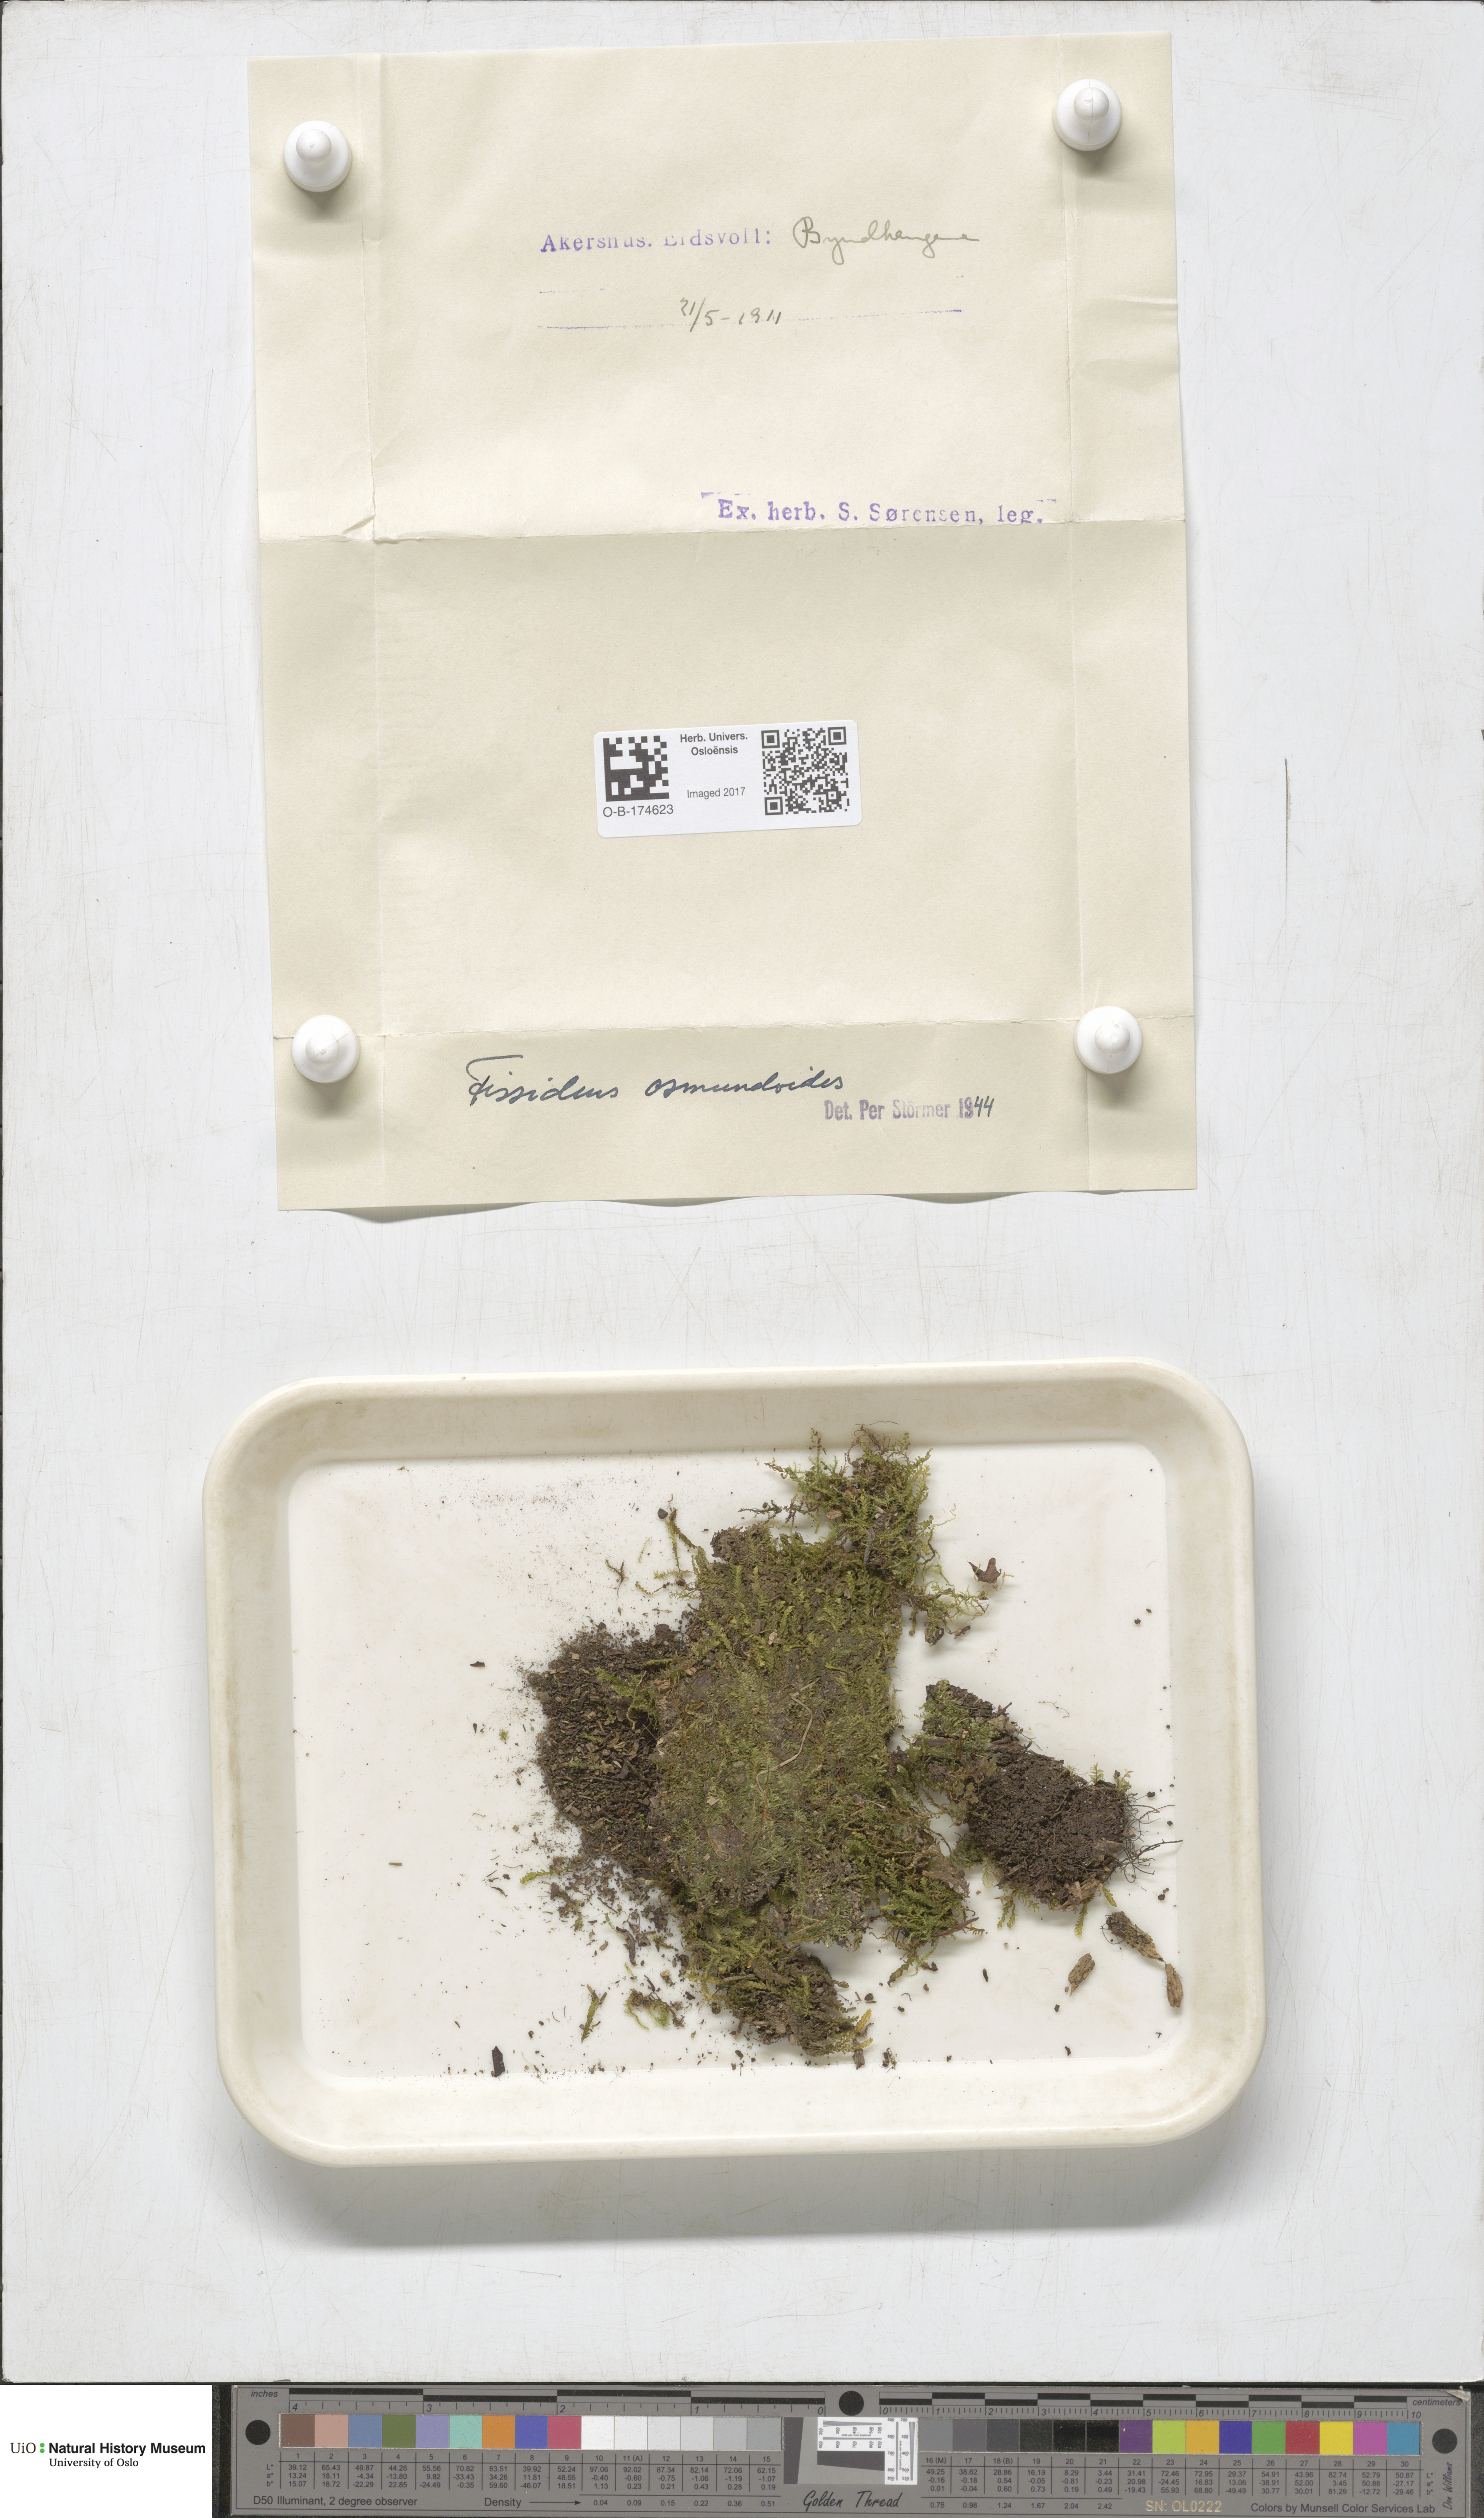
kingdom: Plantae
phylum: Bryophyta
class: Bryopsida
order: Dicranales
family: Fissidentaceae
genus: Fissidens
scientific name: Fissidens osmundoides
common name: Purple-stalked pocket moss
